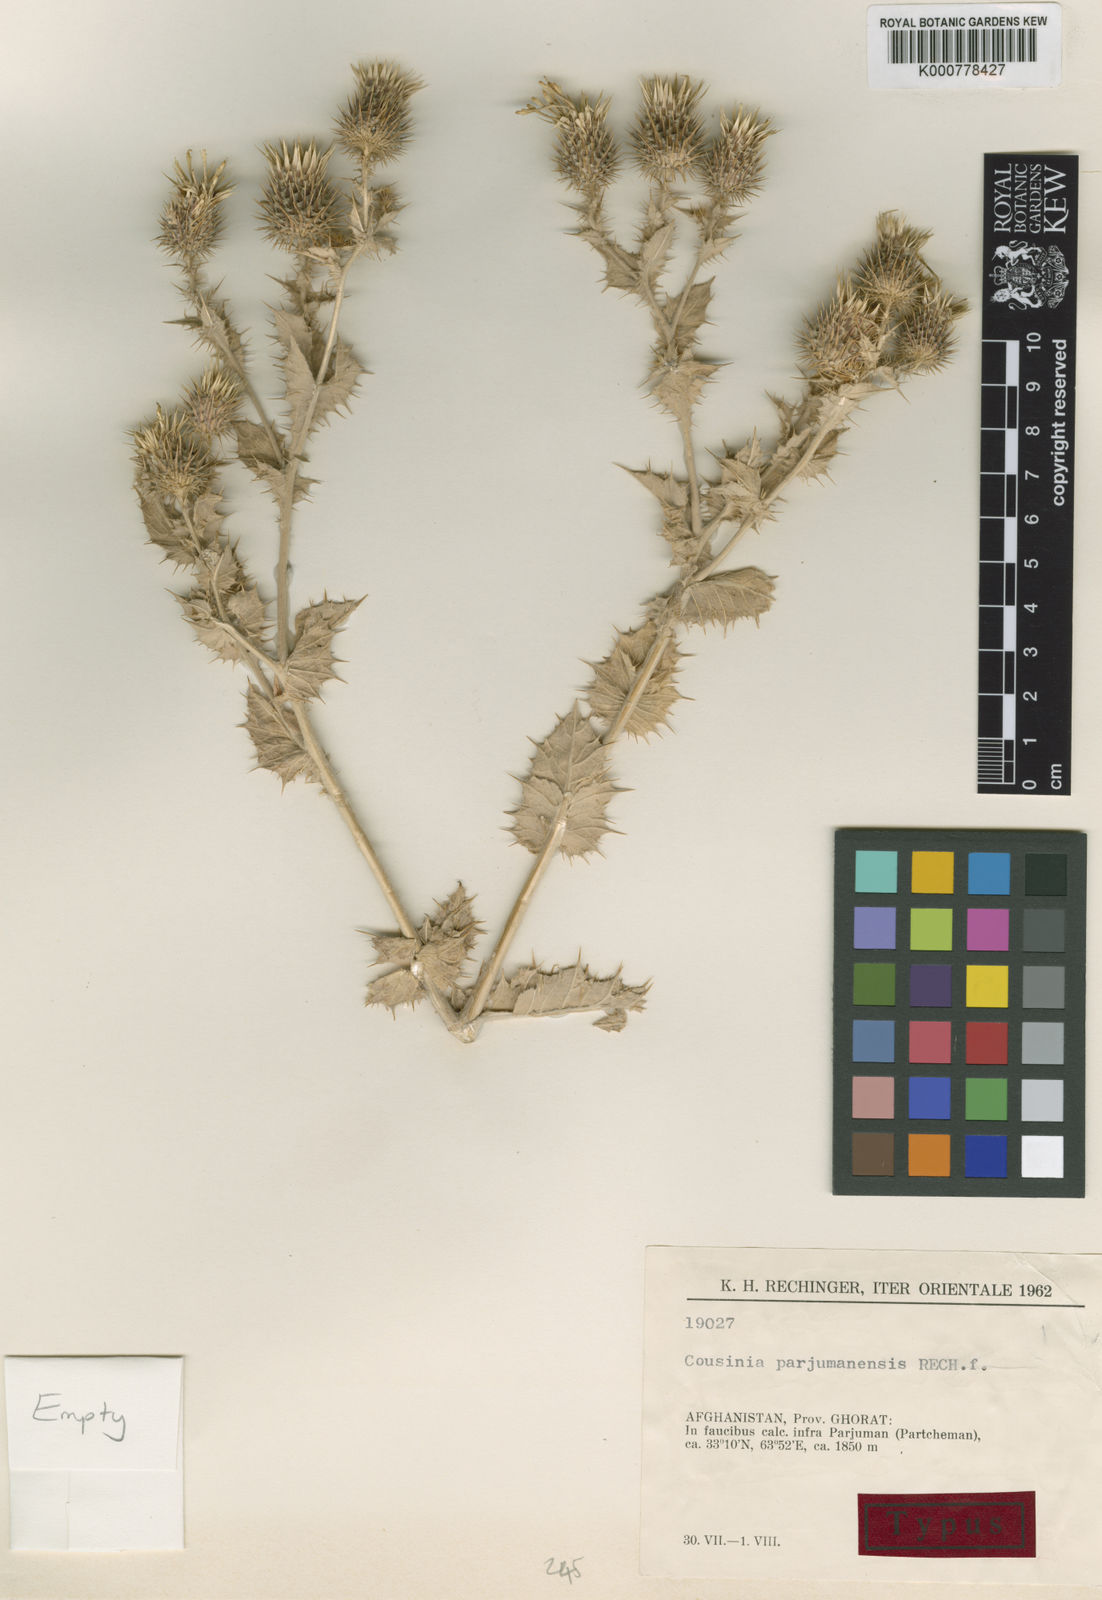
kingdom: Plantae
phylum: Tracheophyta
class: Magnoliopsida
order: Asterales
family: Asteraceae
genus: Cousinia
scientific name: Cousinia parjumanensis
